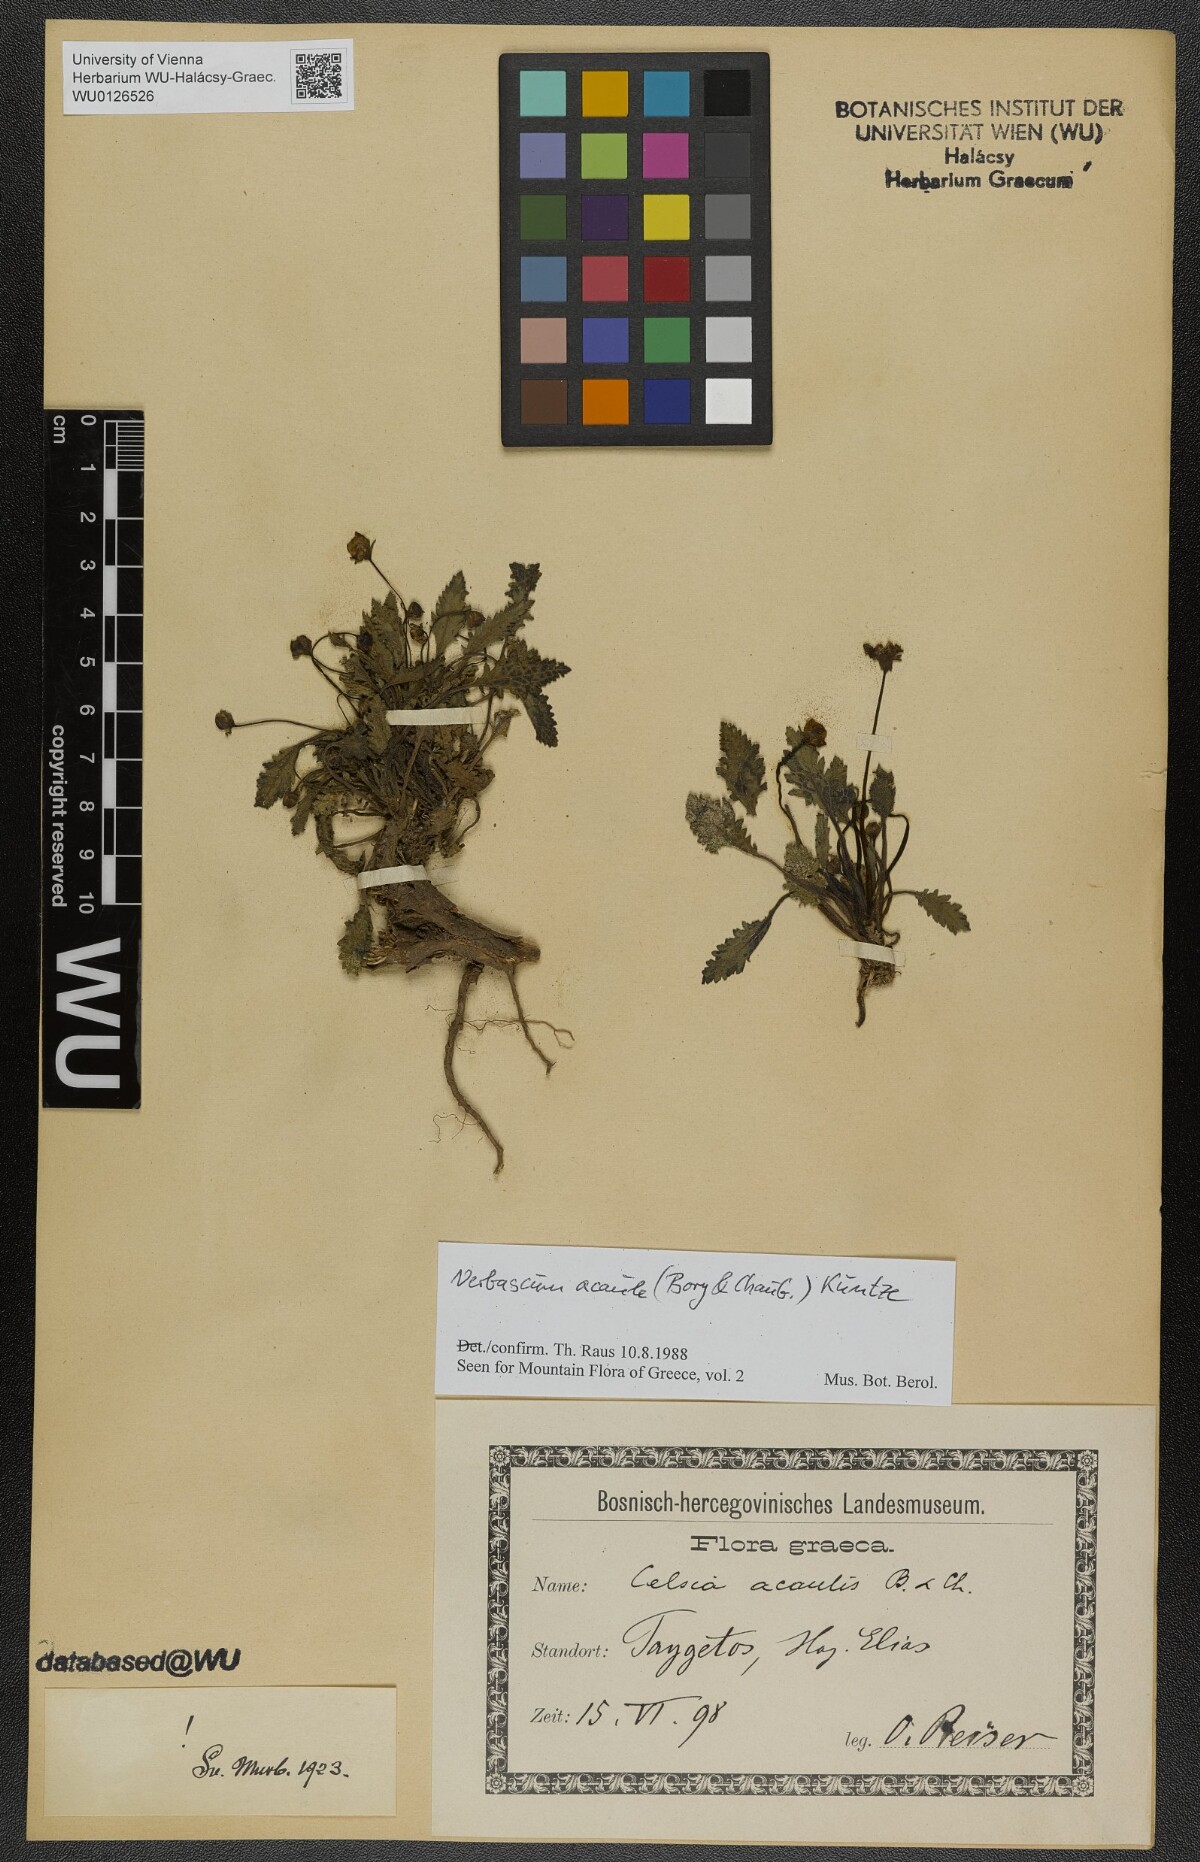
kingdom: Plantae
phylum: Tracheophyta
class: Magnoliopsida
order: Lamiales
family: Scrophulariaceae
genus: Verbascum
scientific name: Verbascum acaule
